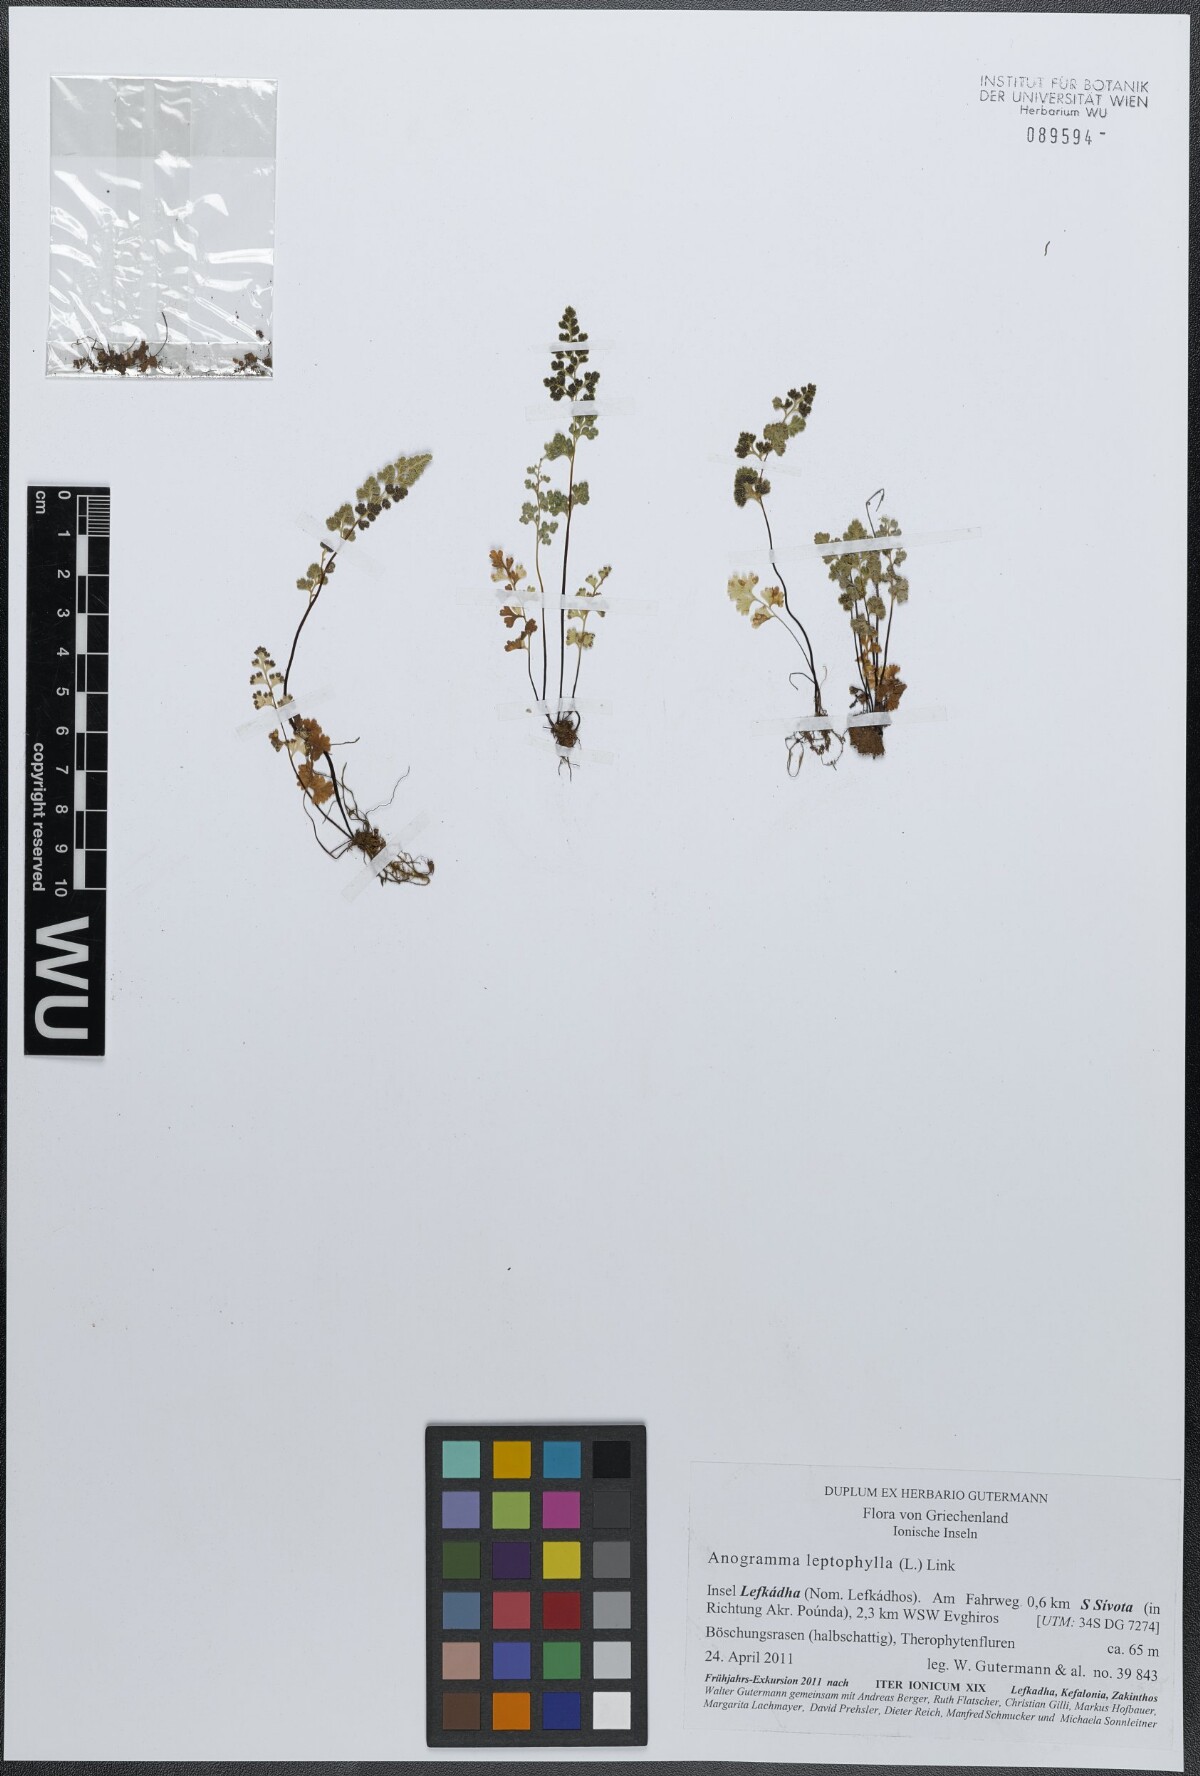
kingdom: Plantae
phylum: Tracheophyta
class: Polypodiopsida
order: Polypodiales
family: Pteridaceae
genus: Anogramma
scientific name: Anogramma leptophylla
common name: Jersey fern
